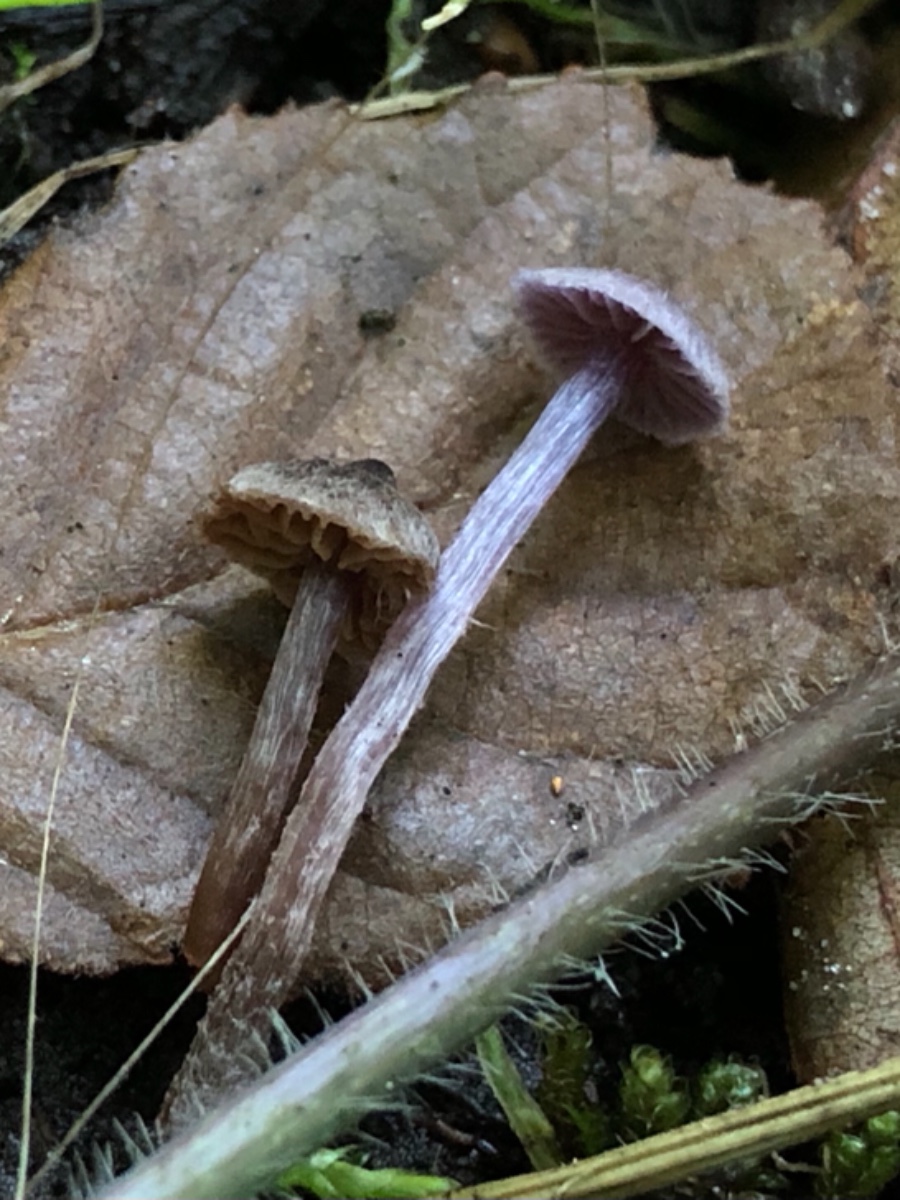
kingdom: Fungi
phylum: Basidiomycota
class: Agaricomycetes
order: Agaricales
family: Cortinariaceae
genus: Cortinarius
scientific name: Cortinarius americanus
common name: natsort slørhat
